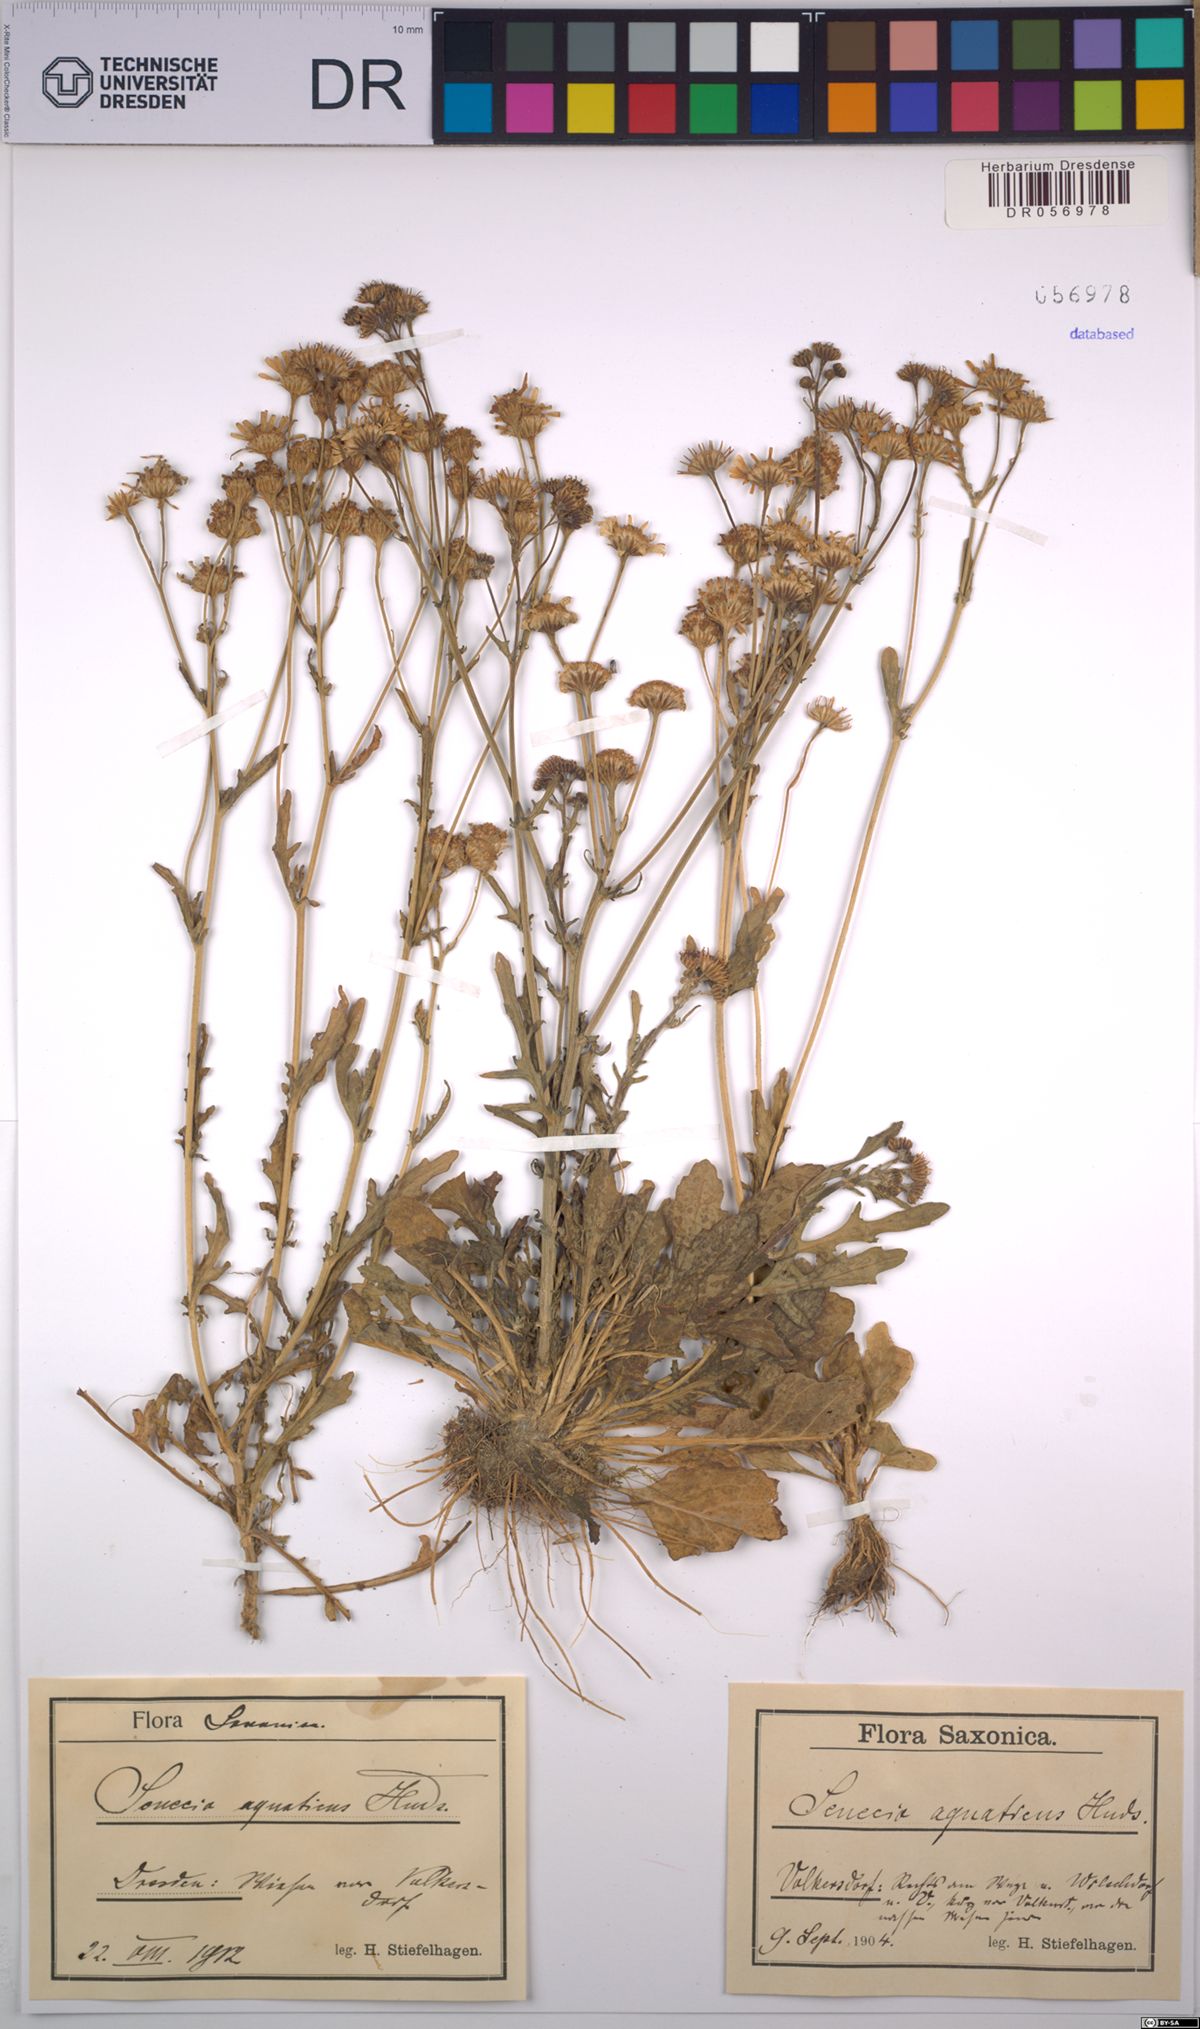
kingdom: Plantae
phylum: Tracheophyta
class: Magnoliopsida
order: Asterales
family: Asteraceae
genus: Jacobaea
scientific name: Jacobaea aquatica
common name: Water ragwort
